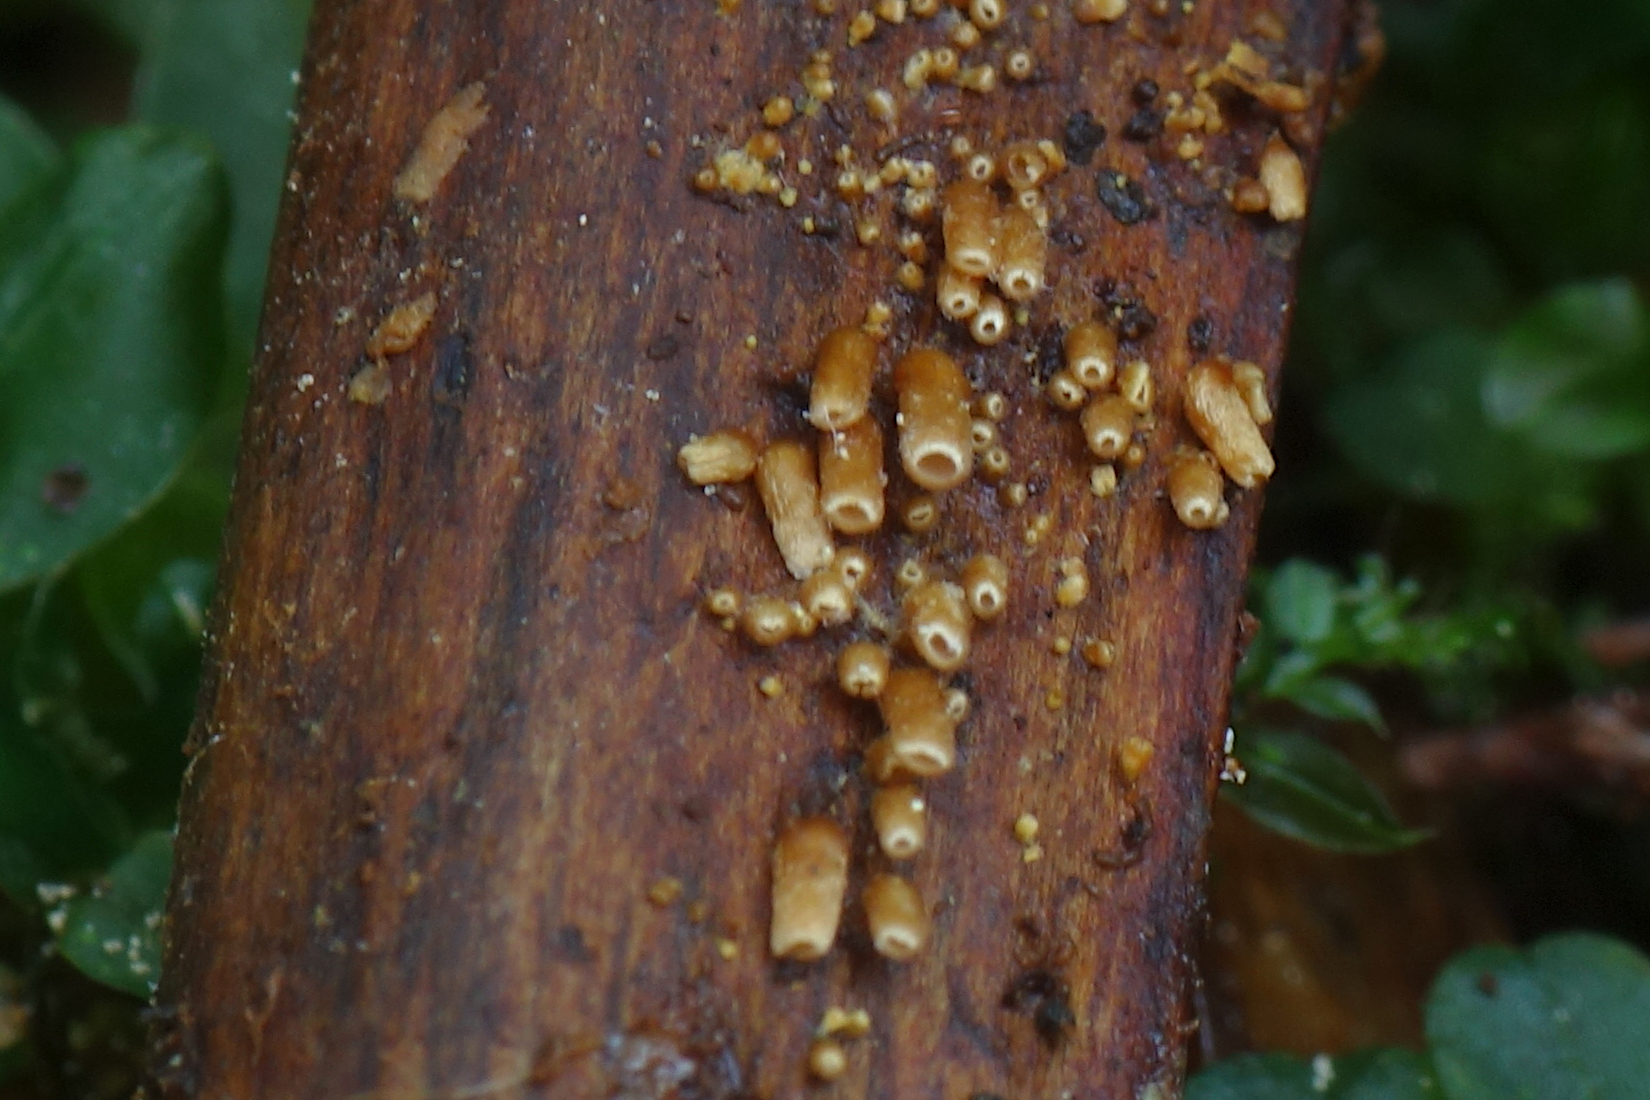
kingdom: Fungi
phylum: Basidiomycota
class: Agaricomycetes
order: Agaricales
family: Niaceae
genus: Woldmaria
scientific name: Woldmaria filicina
